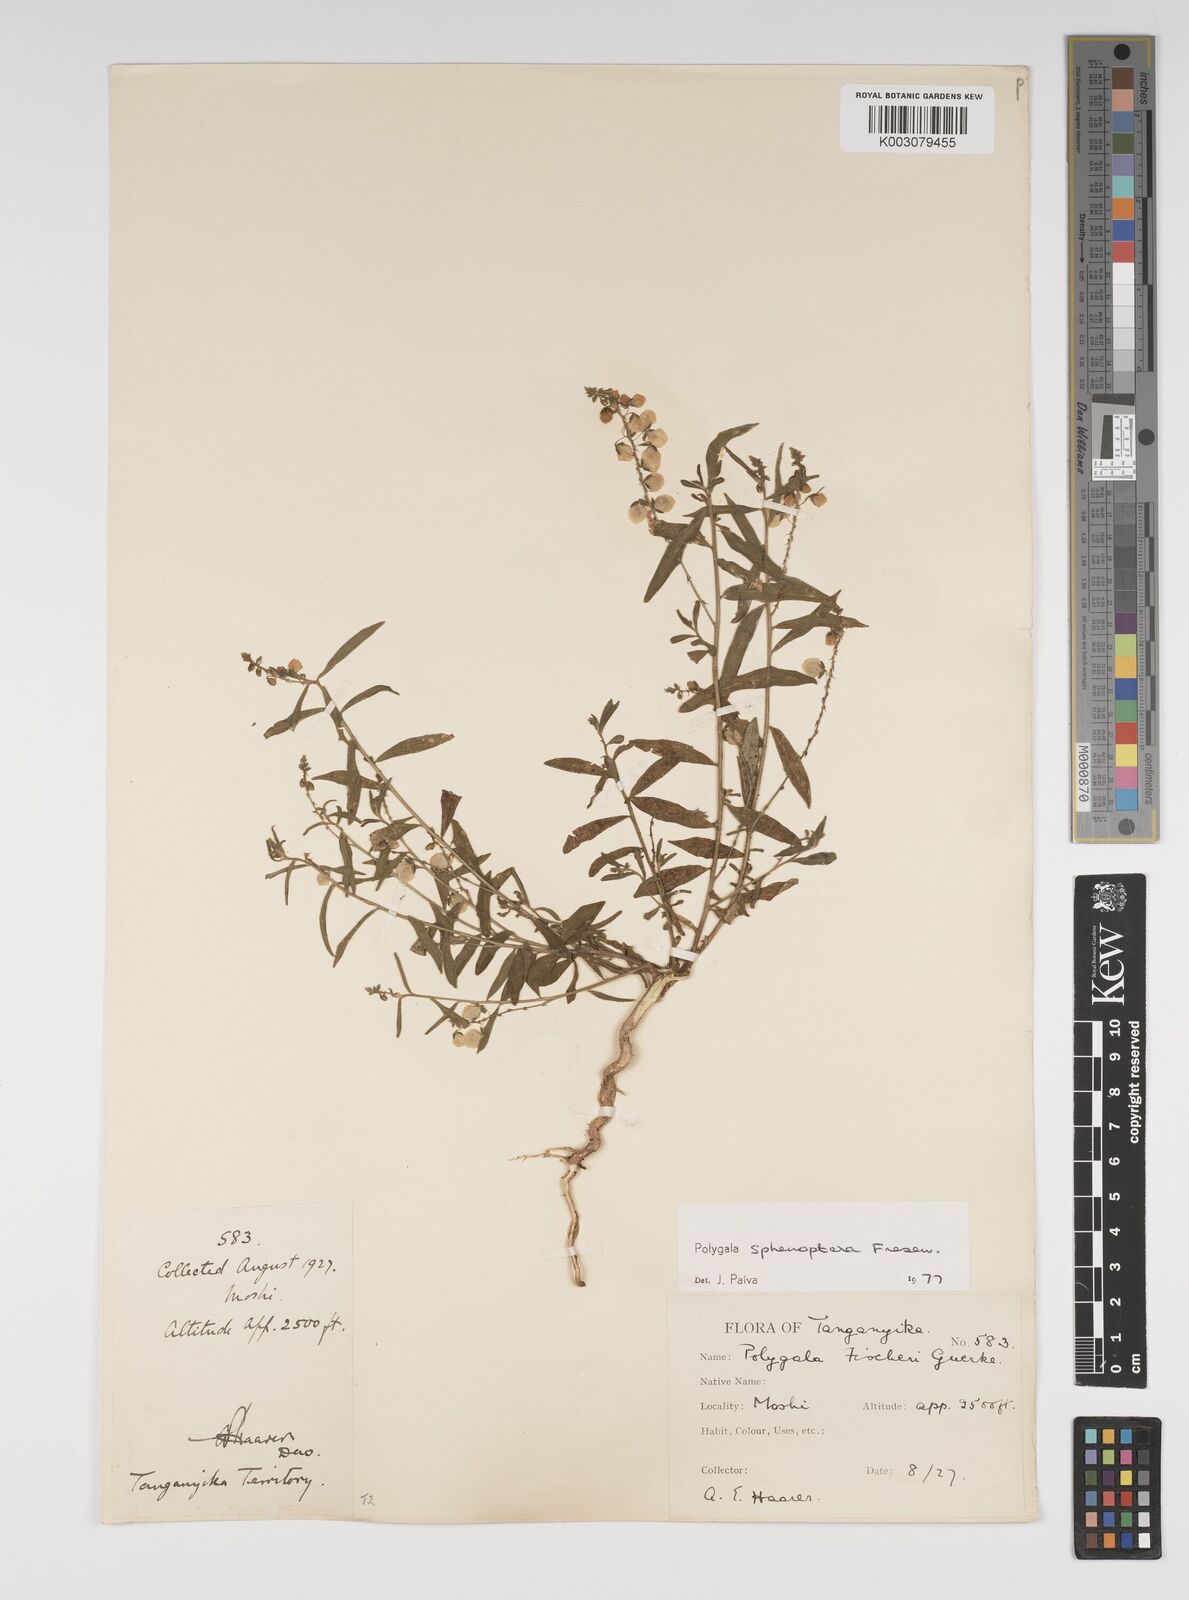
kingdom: Plantae
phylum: Tracheophyta
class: Magnoliopsida
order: Fabales
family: Polygalaceae
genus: Polygala
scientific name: Polygala sphenoptera
